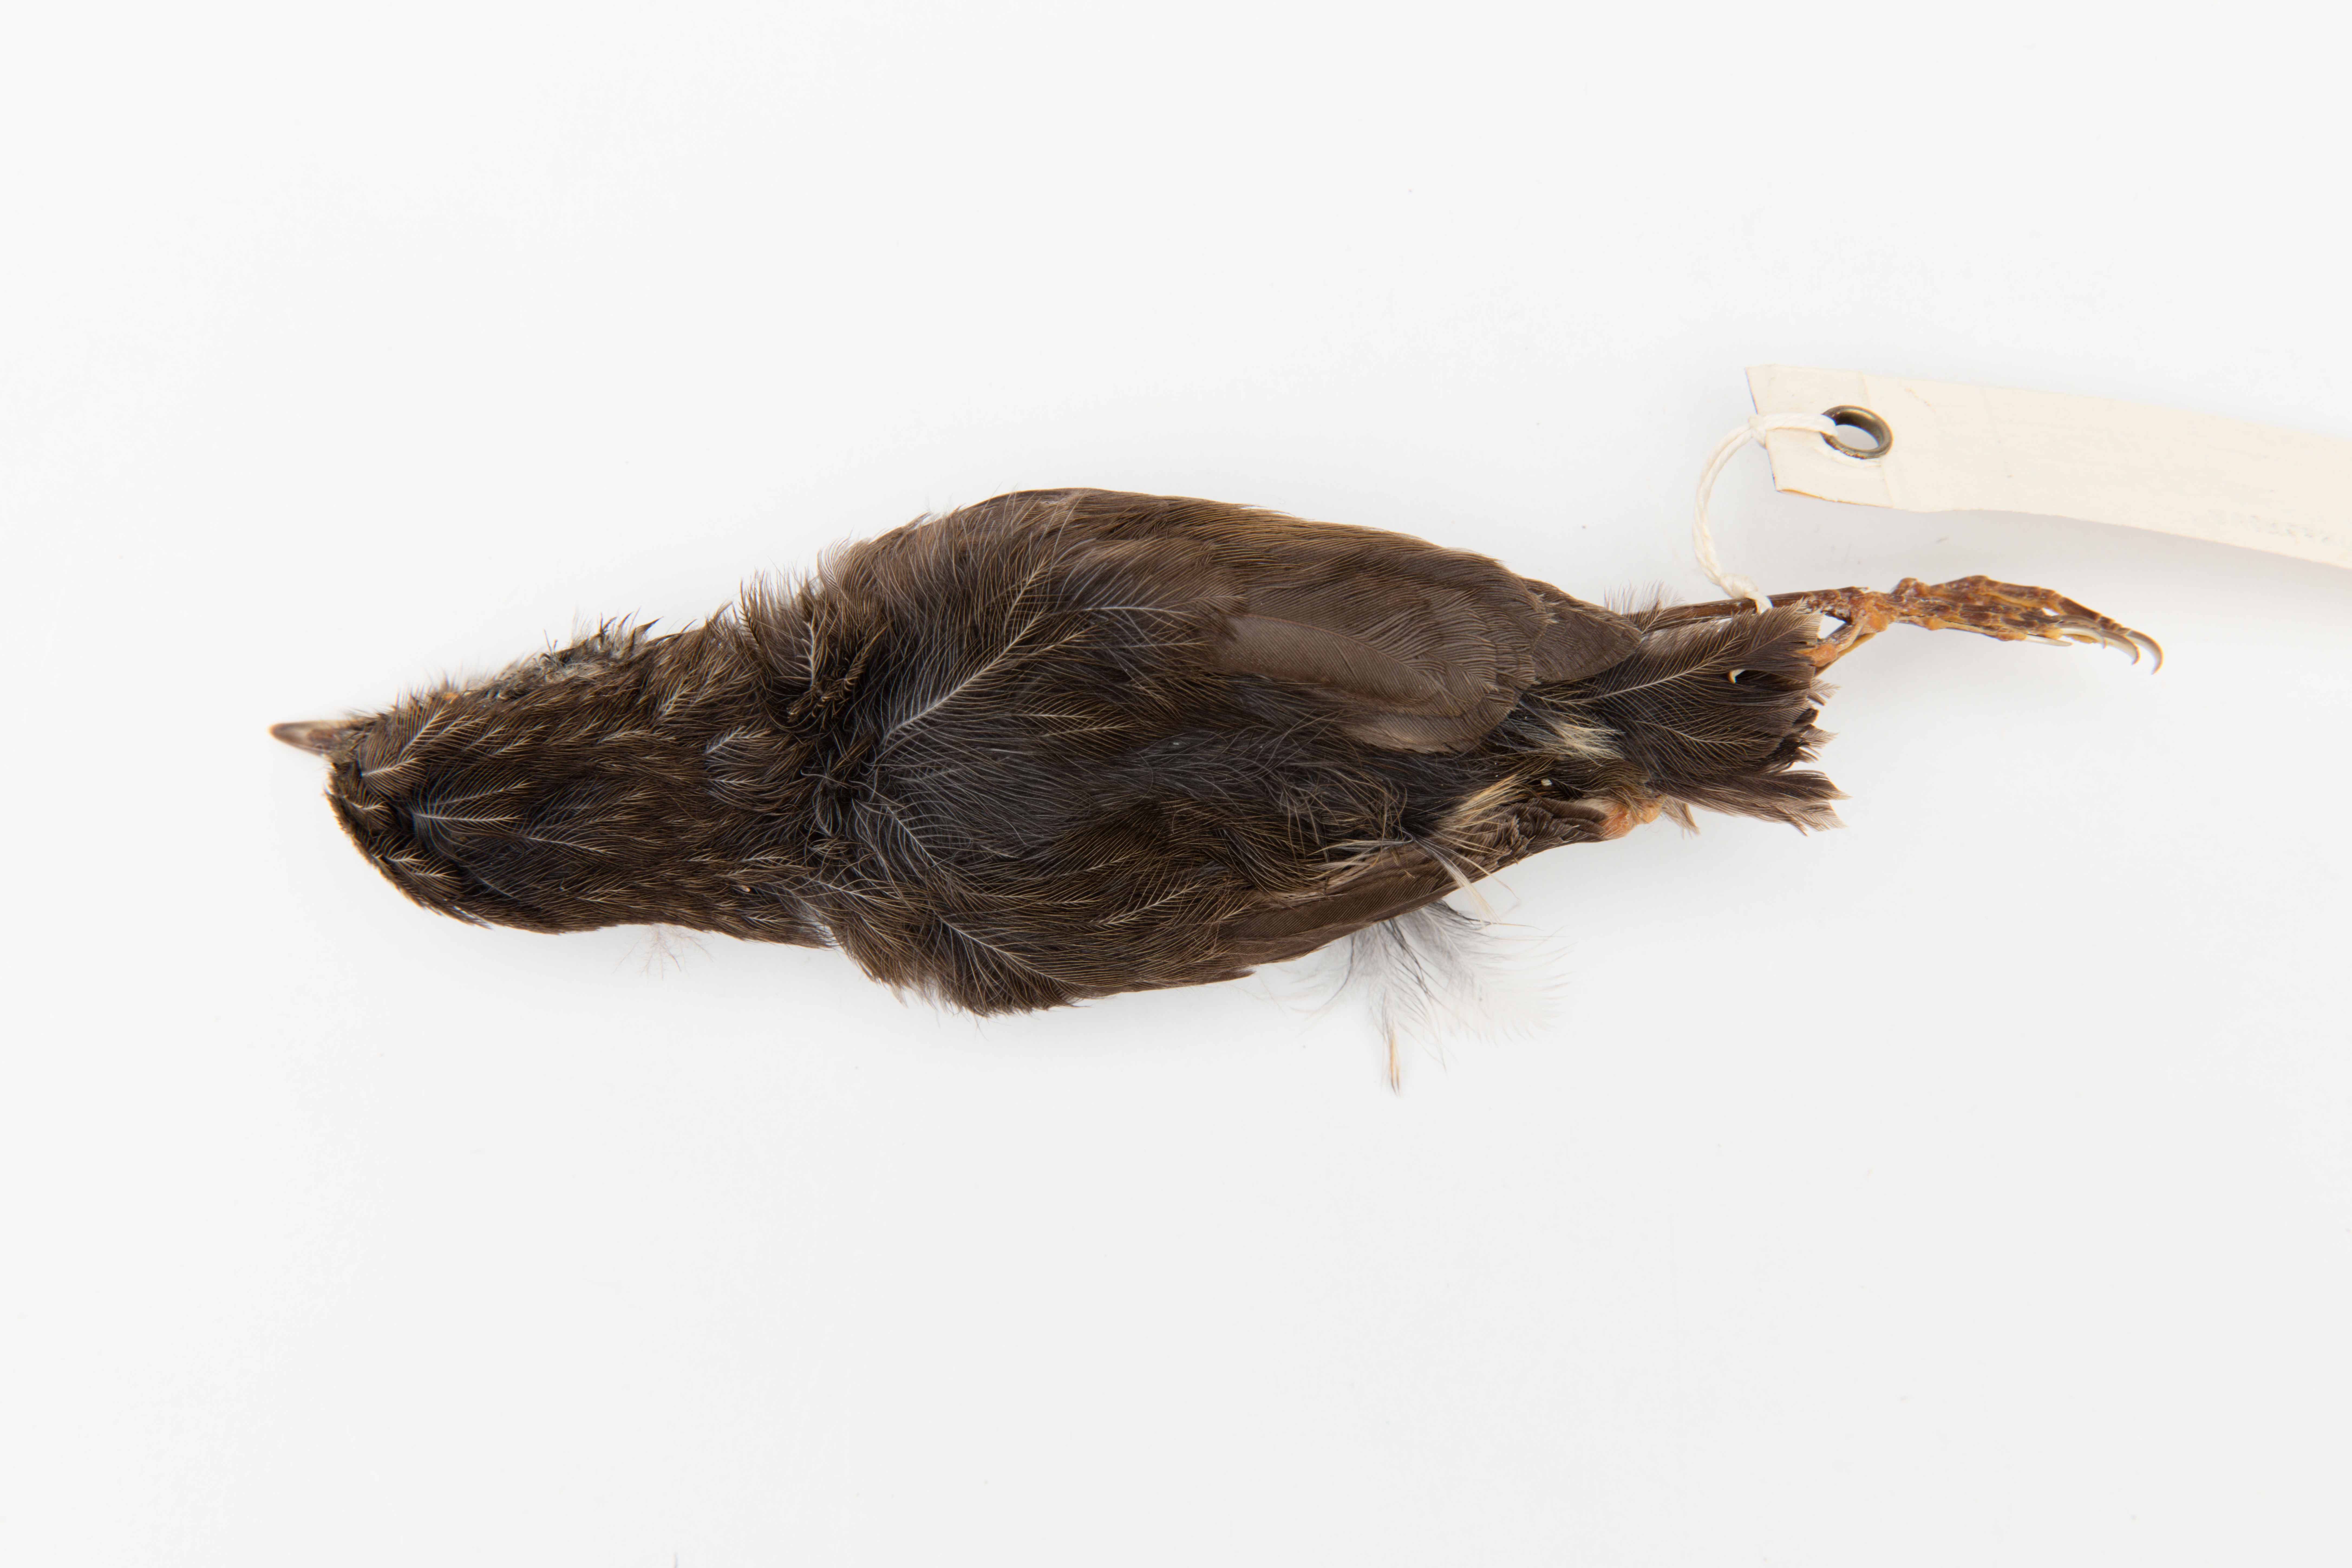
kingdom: Animalia
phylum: Chordata
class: Aves
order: Passeriformes
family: Petroicidae
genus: Petroica
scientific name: Petroica australis
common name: New zealand robin
